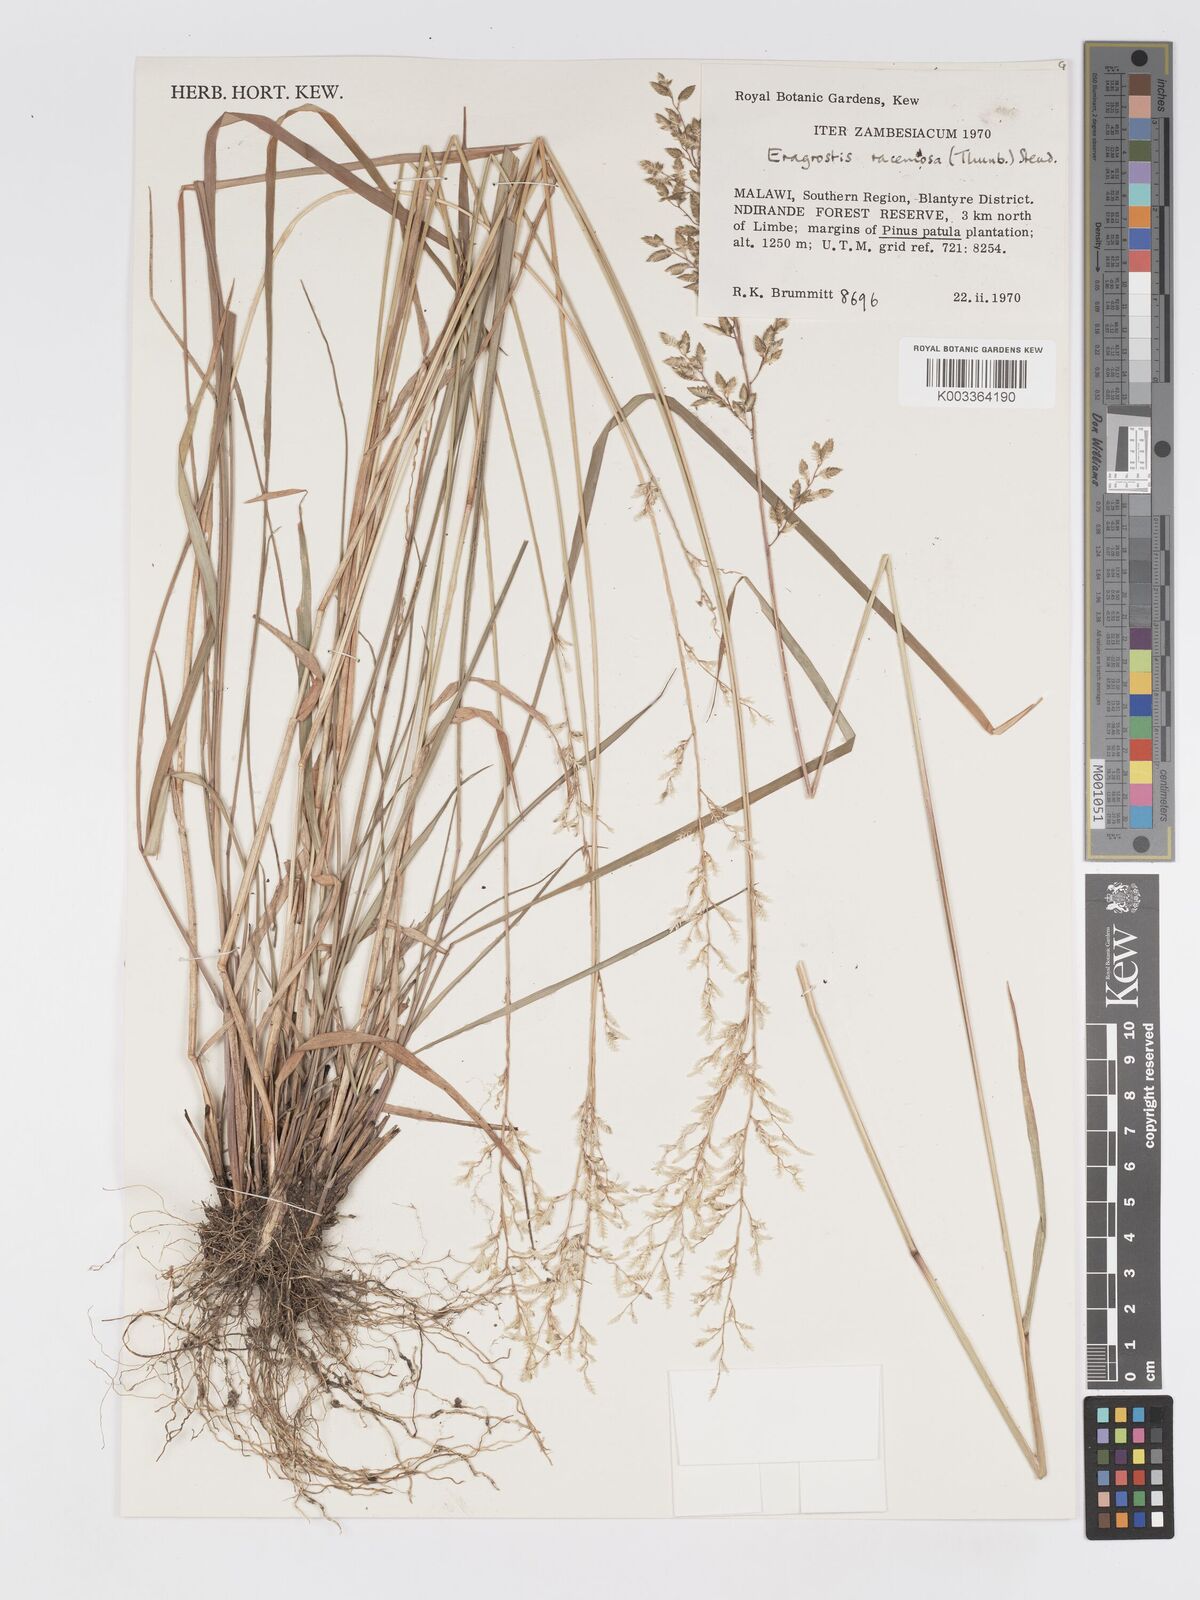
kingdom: Plantae
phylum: Tracheophyta
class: Liliopsida
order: Poales
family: Poaceae
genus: Eragrostis
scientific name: Eragrostis racemosa
